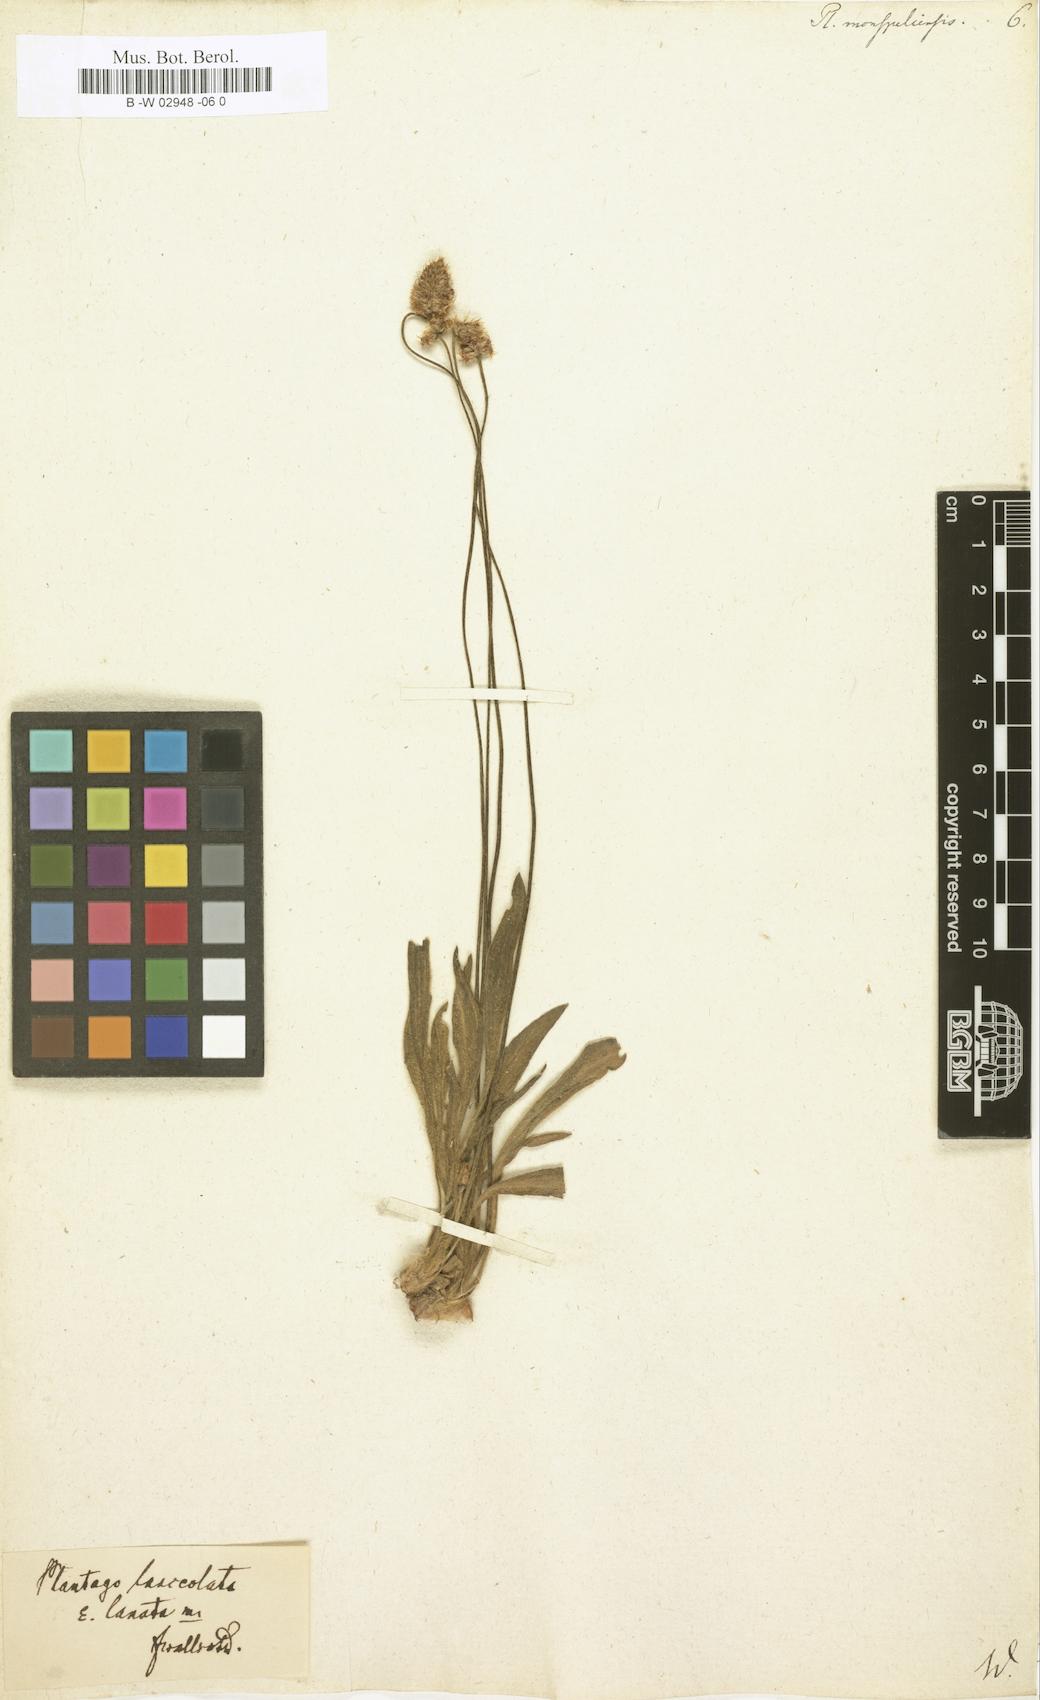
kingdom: Plantae
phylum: Tracheophyta
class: Magnoliopsida
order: Lamiales
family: Plantaginaceae
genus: Plantago
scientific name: Plantago ovata
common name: Blond plantain
